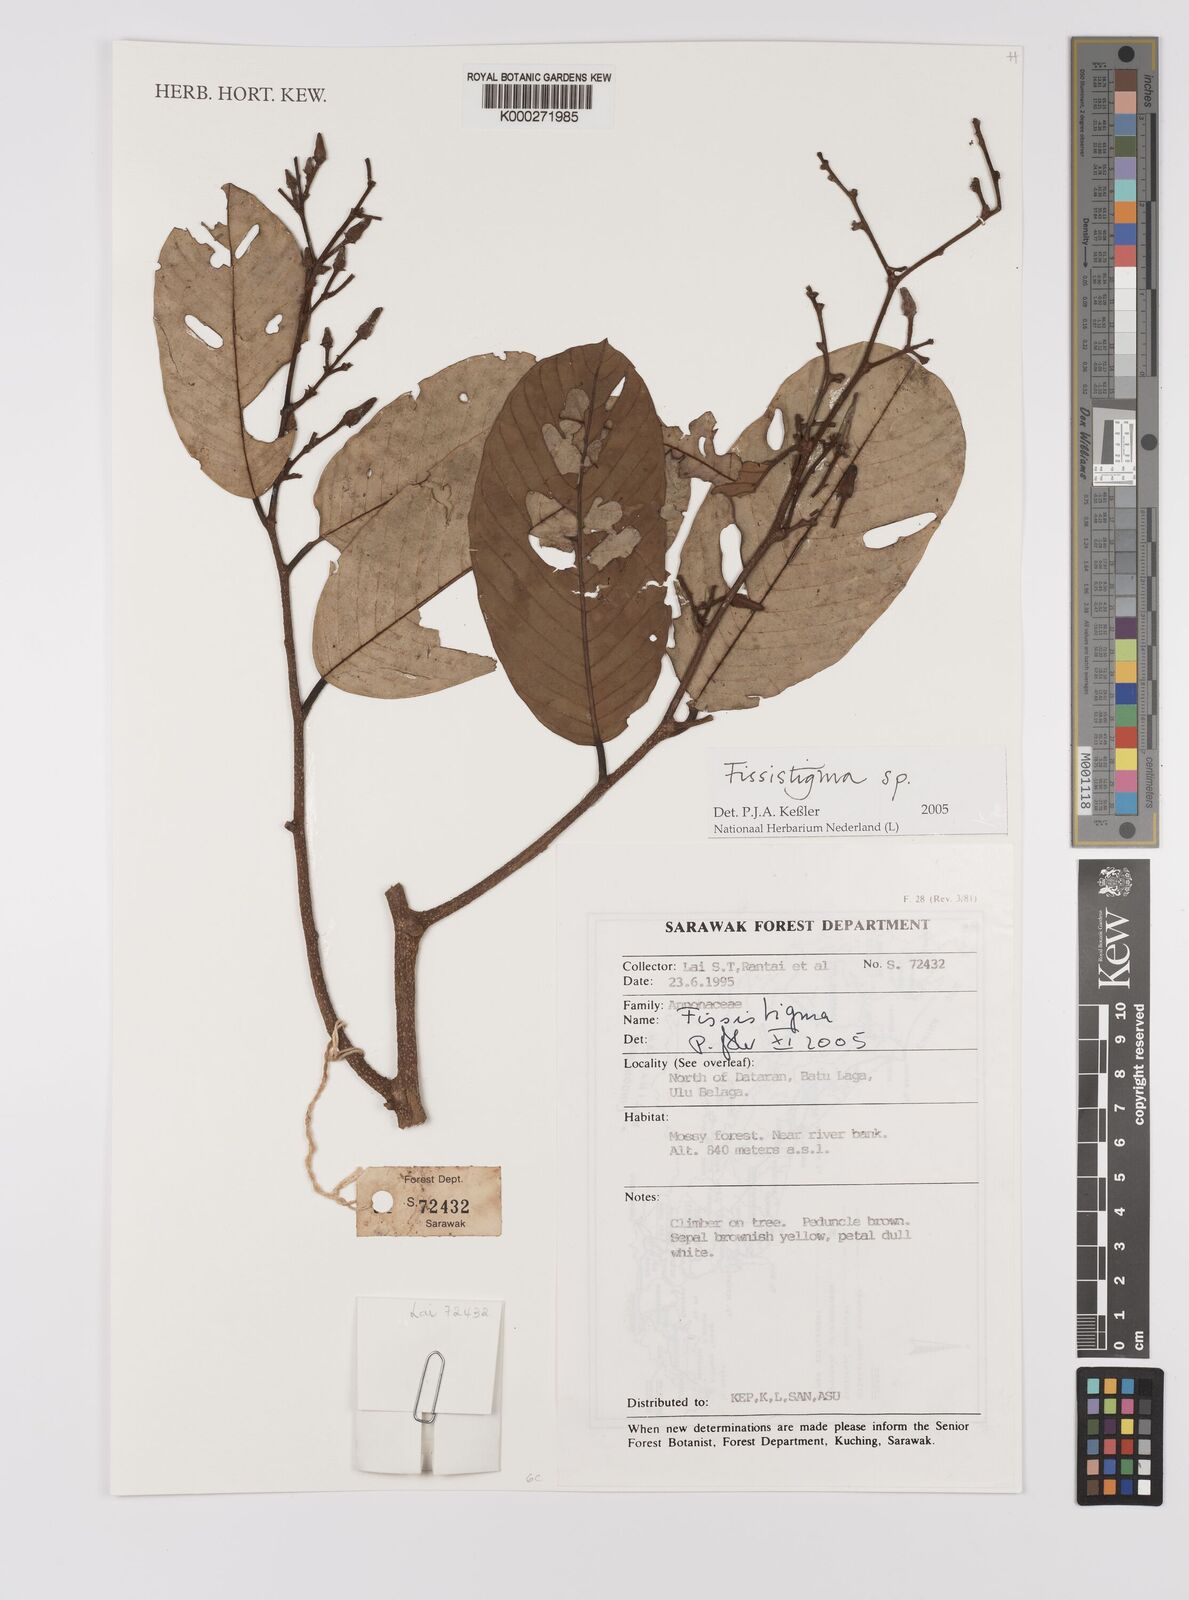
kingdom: Plantae
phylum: Tracheophyta
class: Magnoliopsida
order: Magnoliales
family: Annonaceae
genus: Fissistigma
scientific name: Fissistigma
